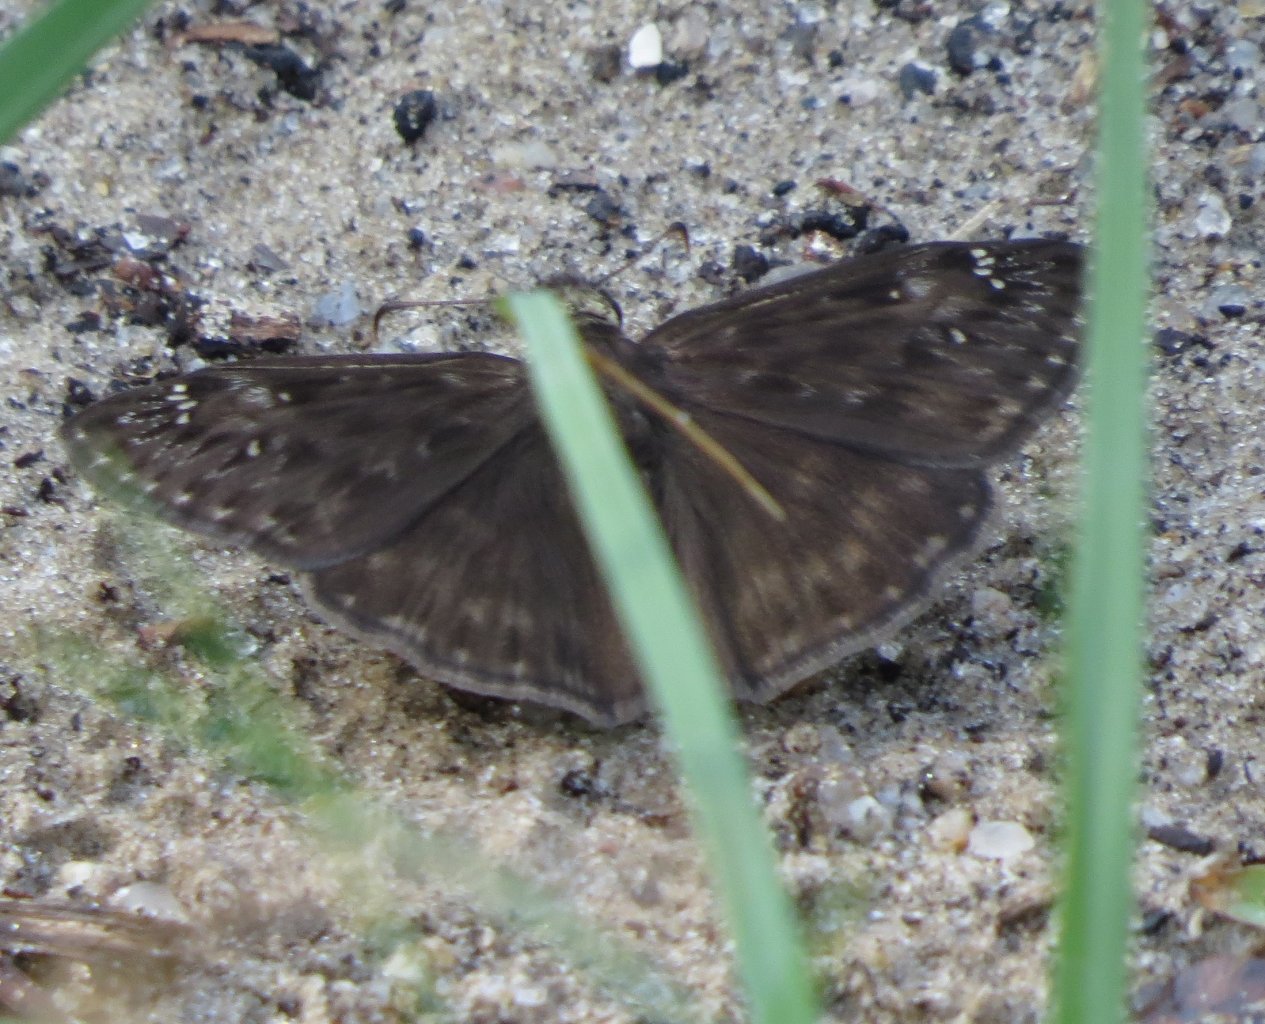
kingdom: Animalia
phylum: Arthropoda
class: Insecta
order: Lepidoptera
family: Hesperiidae
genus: Gesta
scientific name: Gesta
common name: Horace's Duskywing
